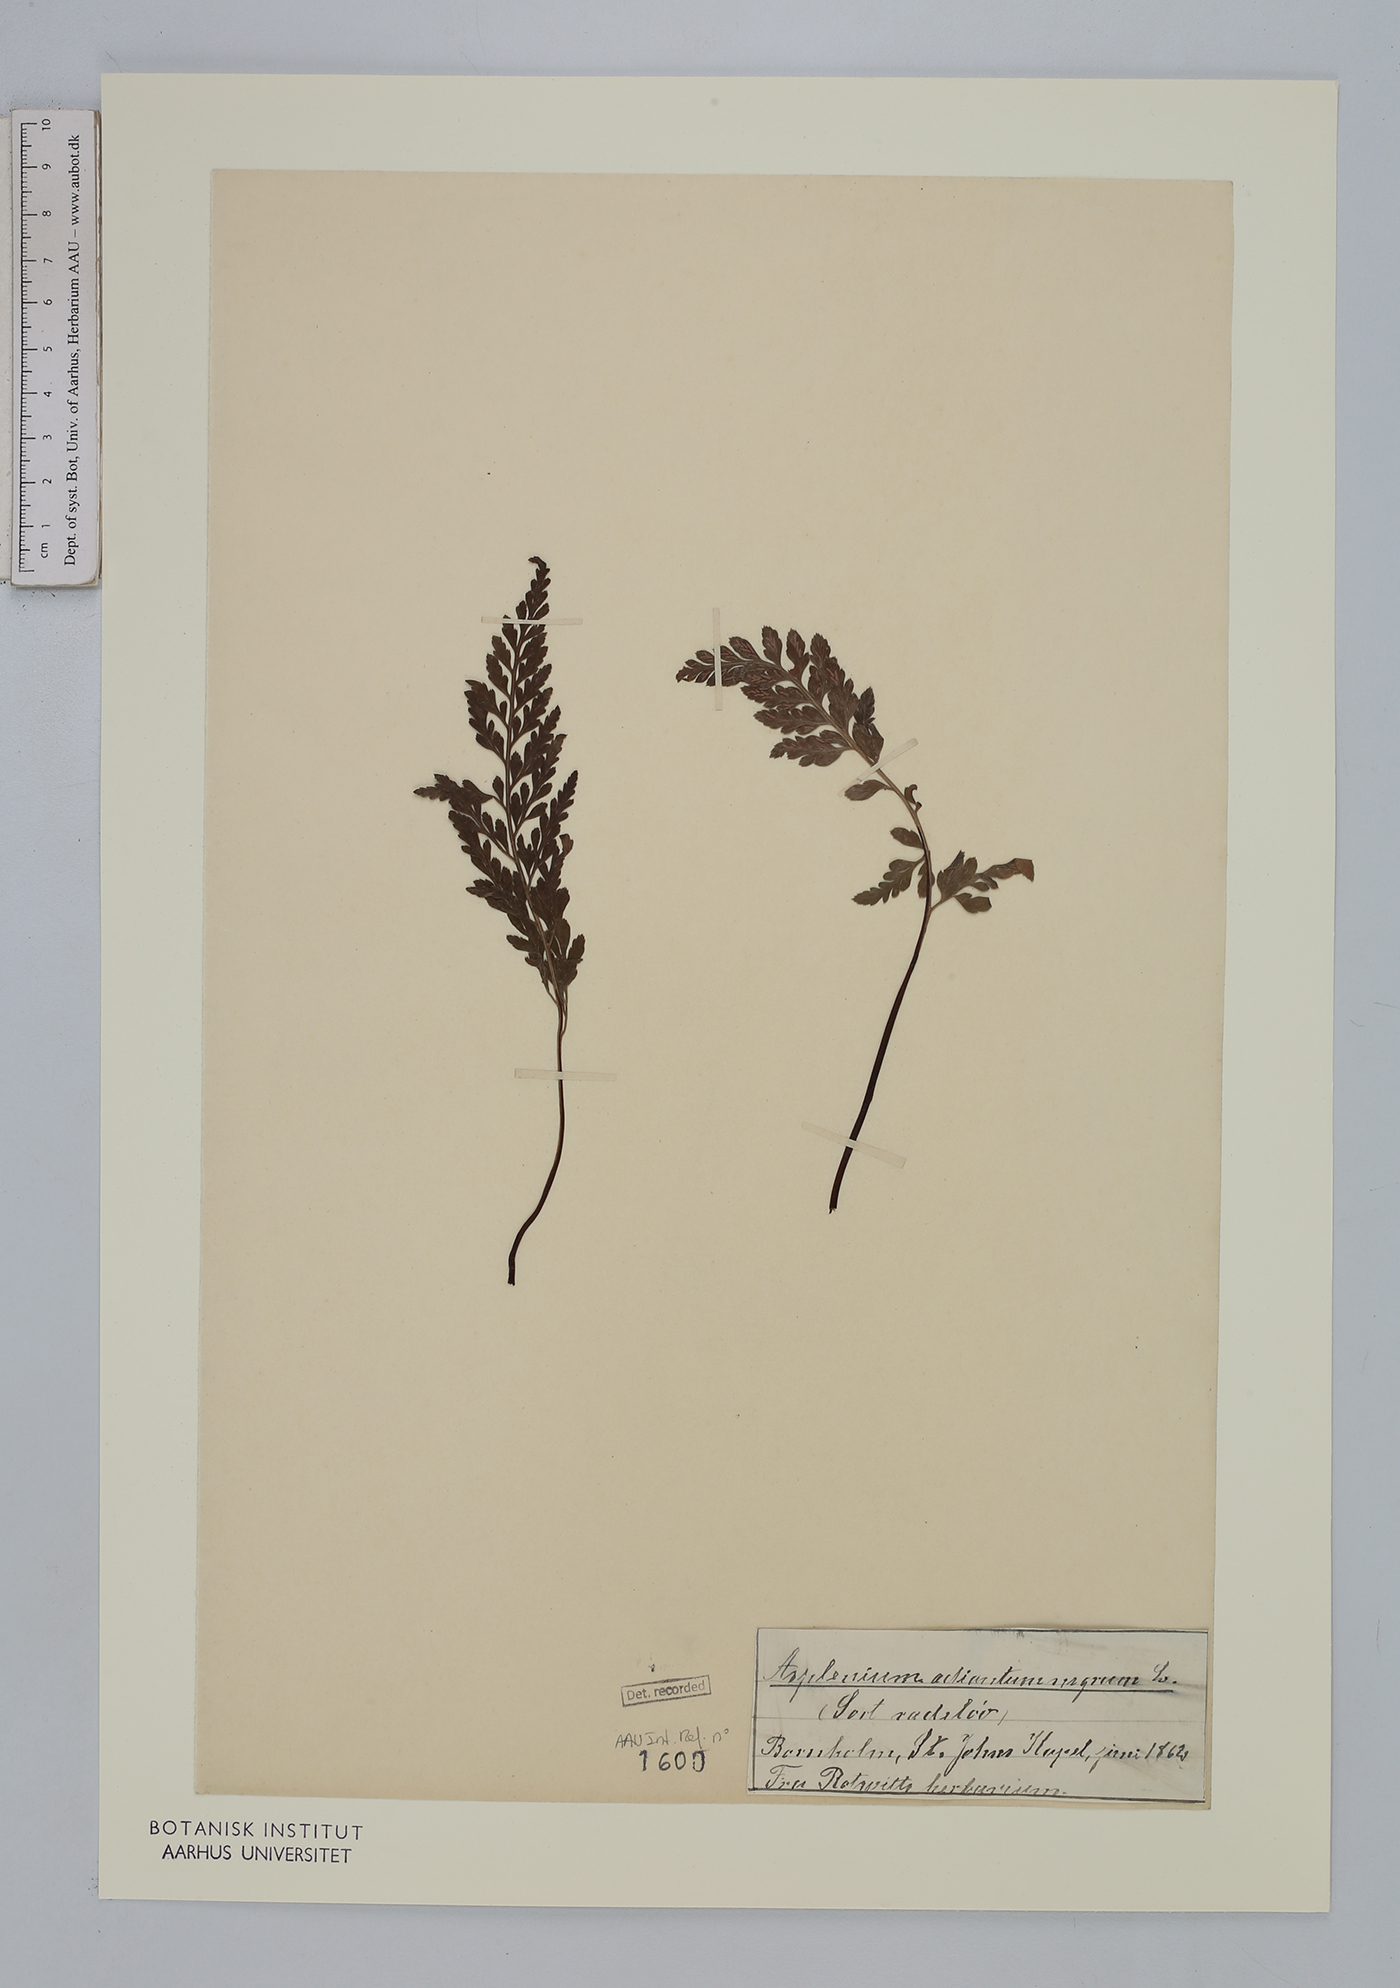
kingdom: Plantae
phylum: Tracheophyta
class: Polypodiopsida
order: Polypodiales
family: Aspleniaceae
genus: Asplenium
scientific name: Asplenium adiantum-nigrum
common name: Black spleenwort
